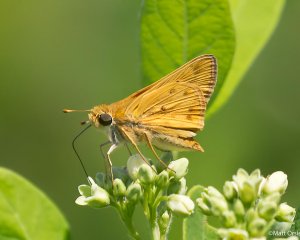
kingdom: Animalia
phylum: Arthropoda
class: Insecta
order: Lepidoptera
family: Hesperiidae
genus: Hylephila
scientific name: Hylephila phyleus
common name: Fiery Skipper
